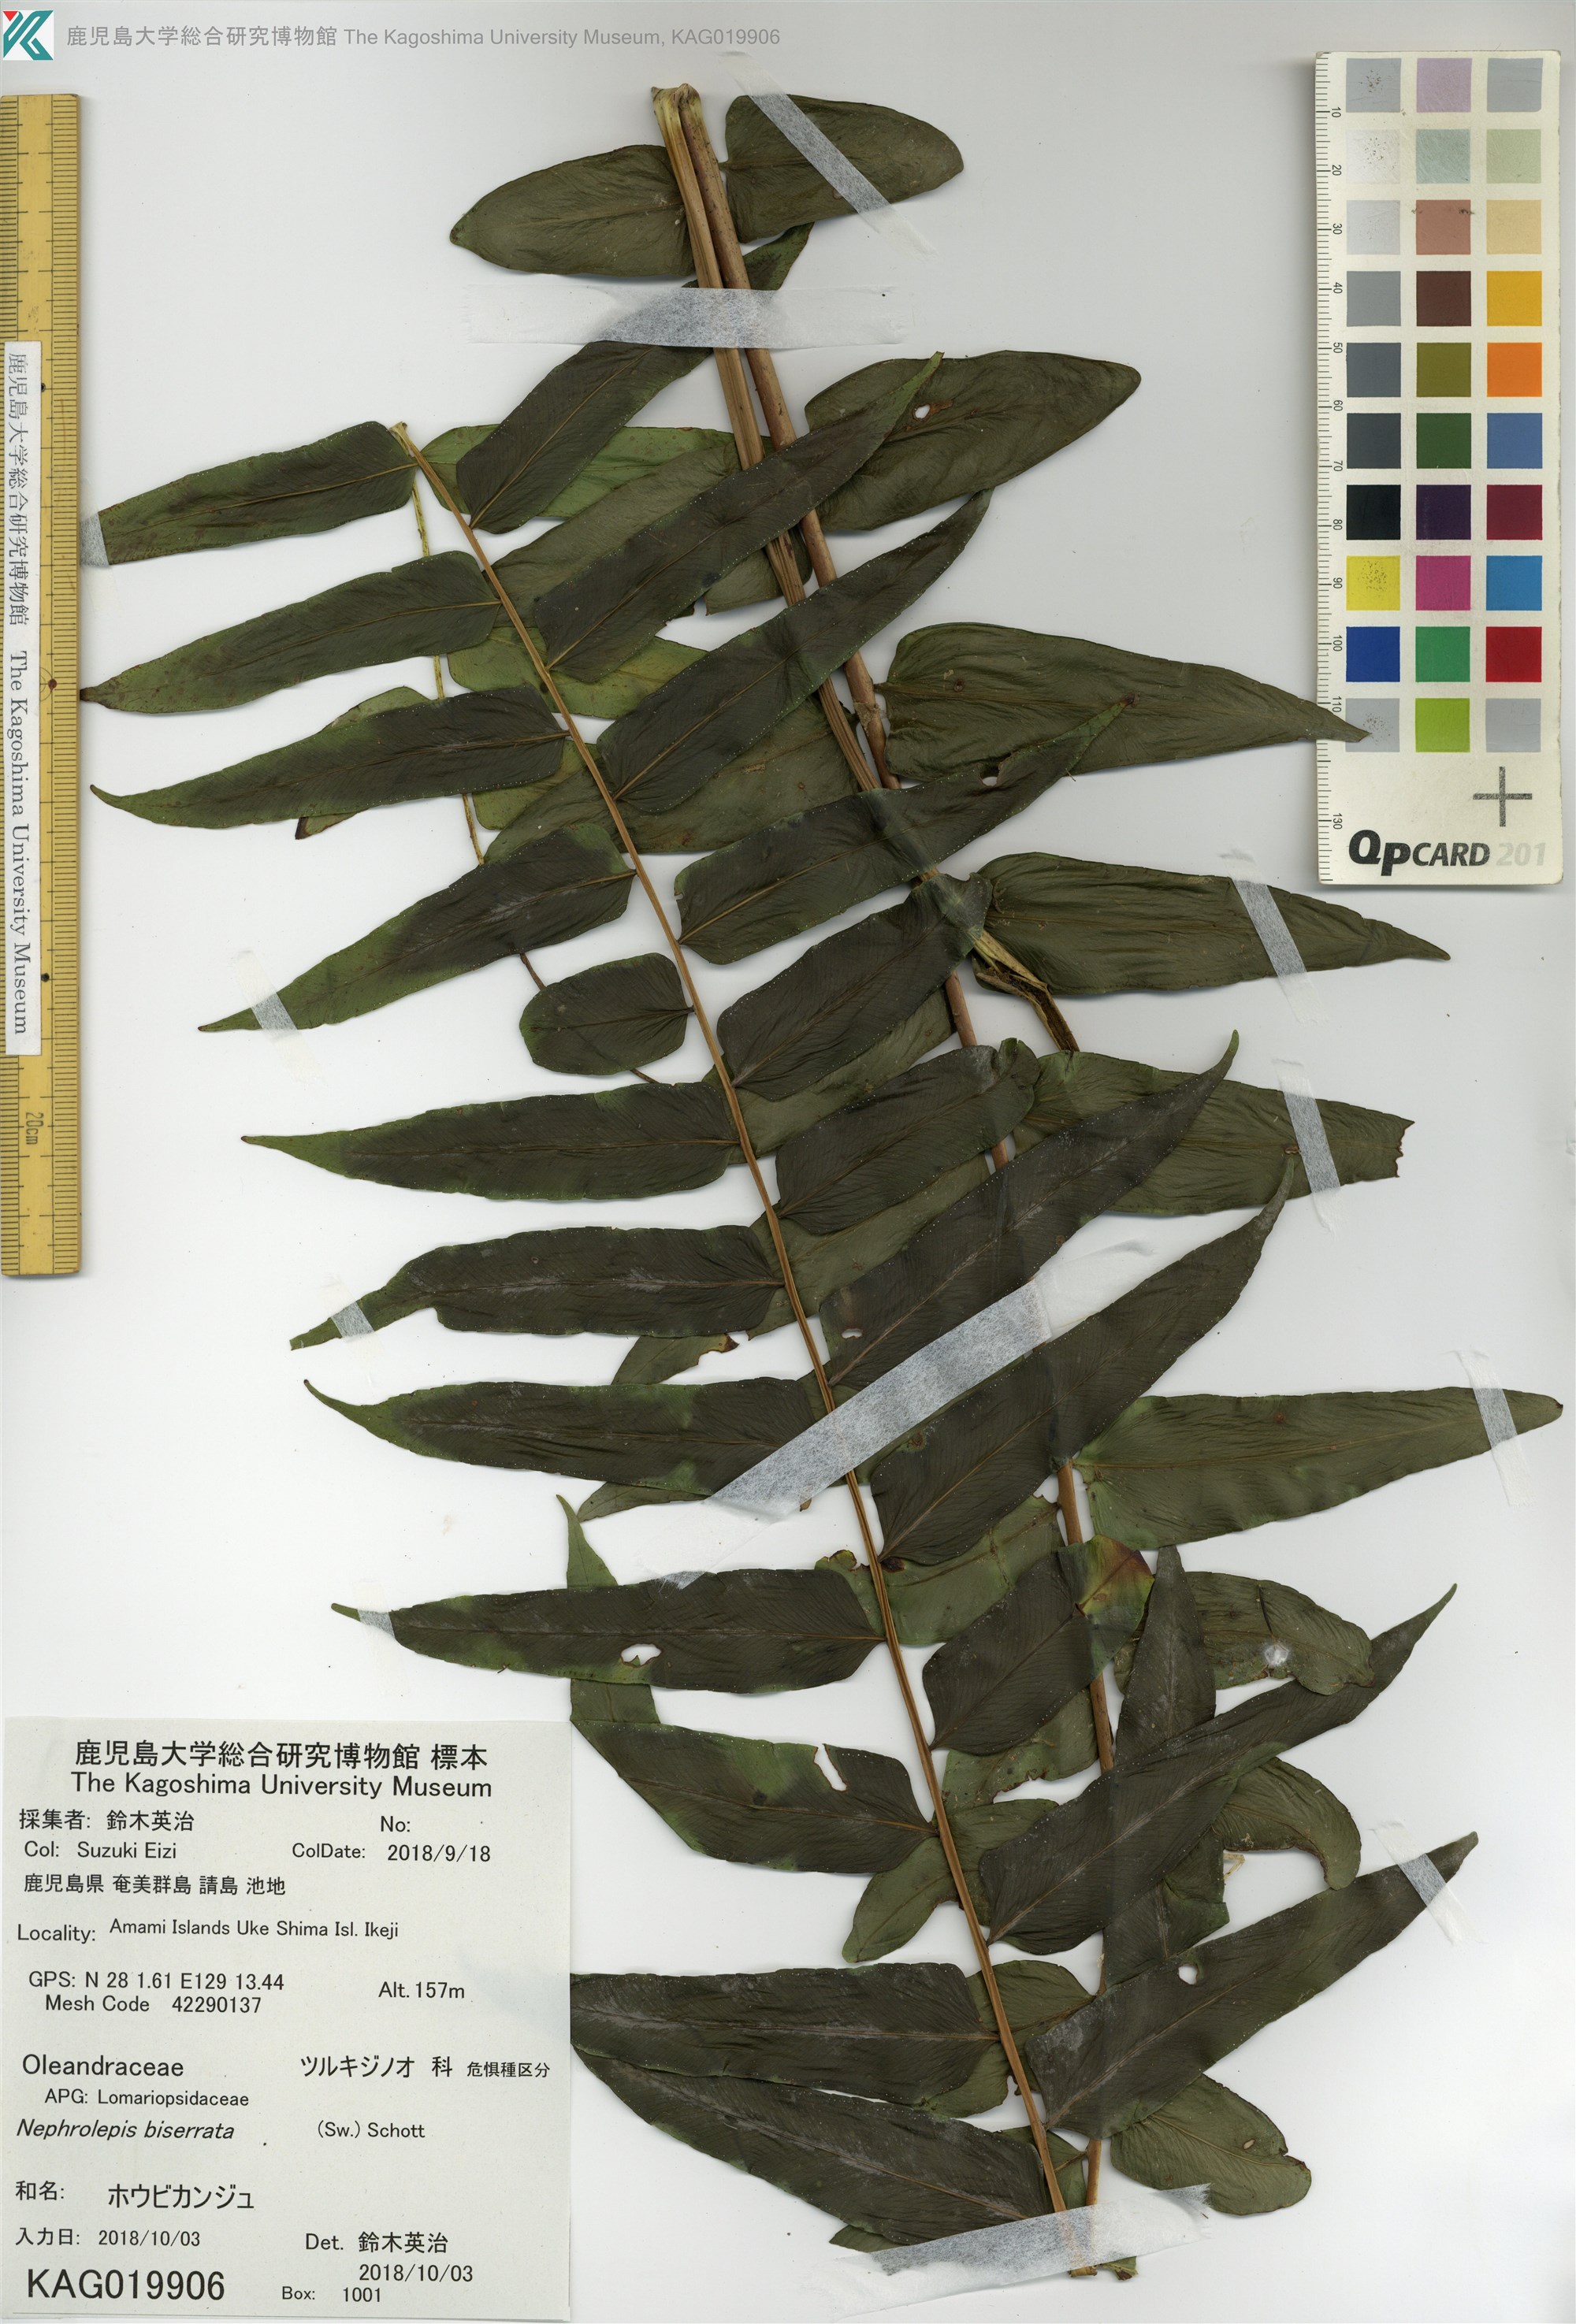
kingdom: Plantae
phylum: Tracheophyta
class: Polypodiopsida
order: Polypodiales
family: Nephrolepidaceae
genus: Nephrolepis
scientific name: Nephrolepis biserrata
